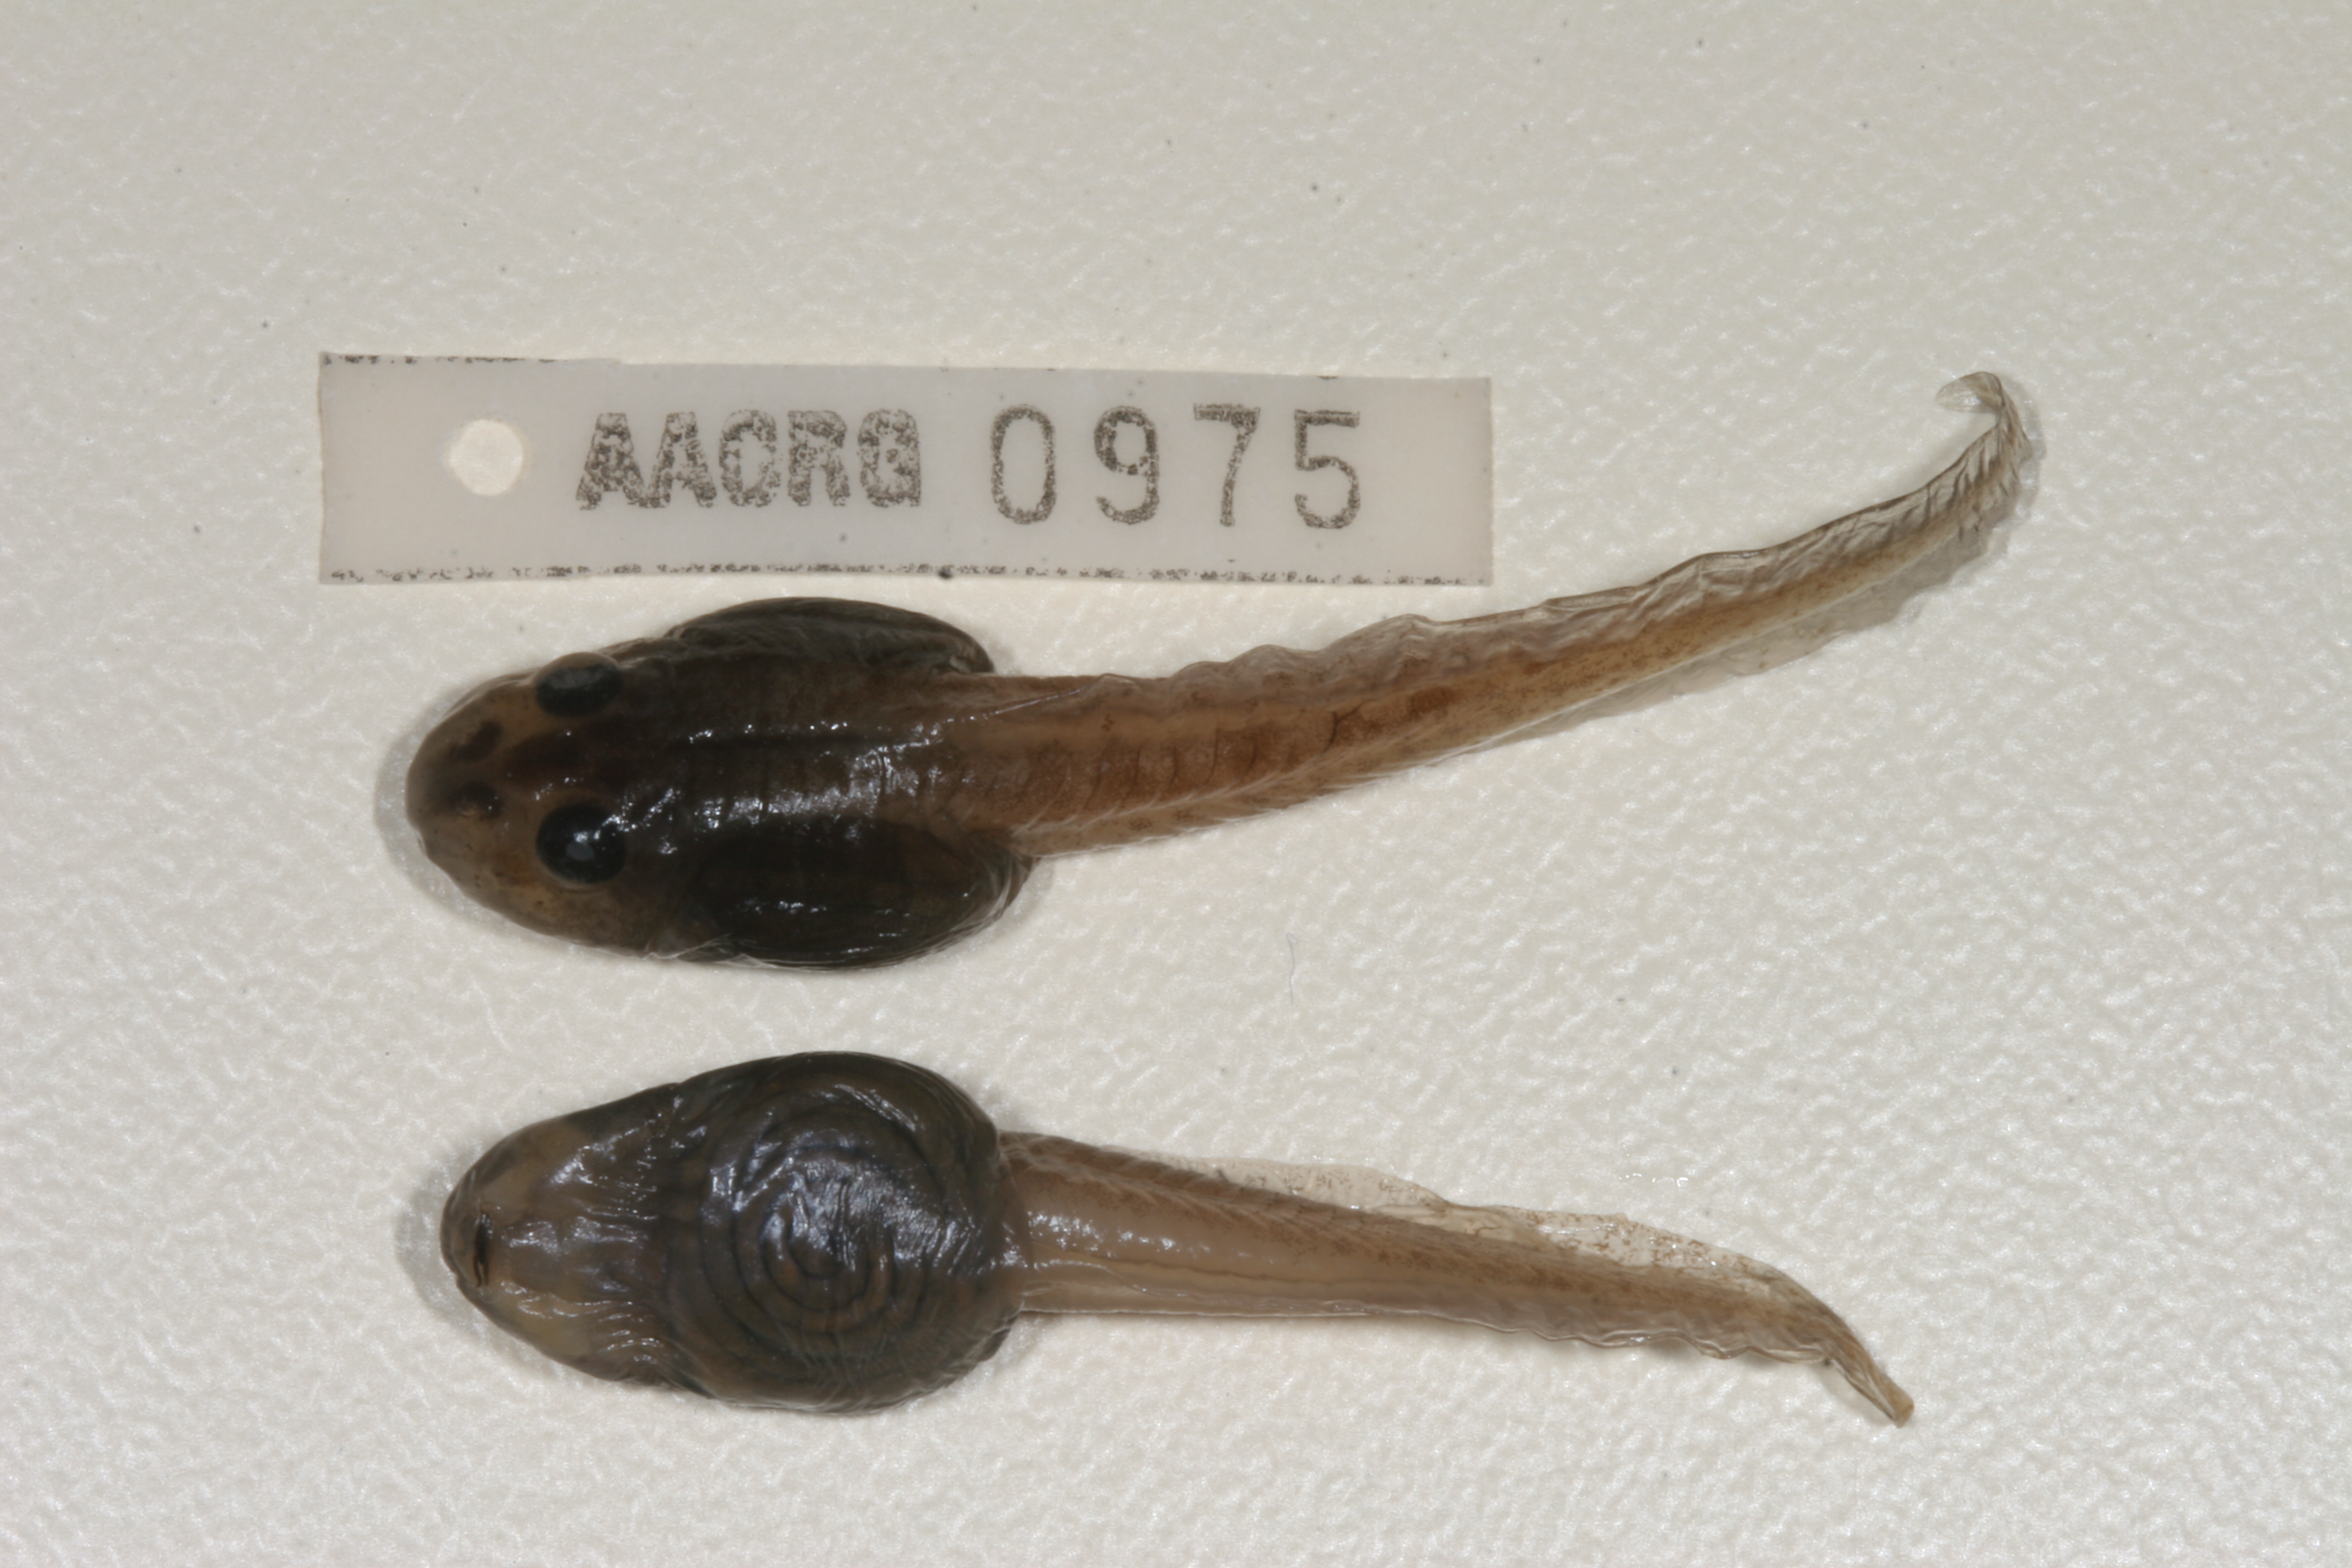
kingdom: Animalia
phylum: Chordata
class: Amphibia
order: Anura
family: Pyxicephalidae
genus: Amietia
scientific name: Amietia angolensis
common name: Dusky-throated frog
